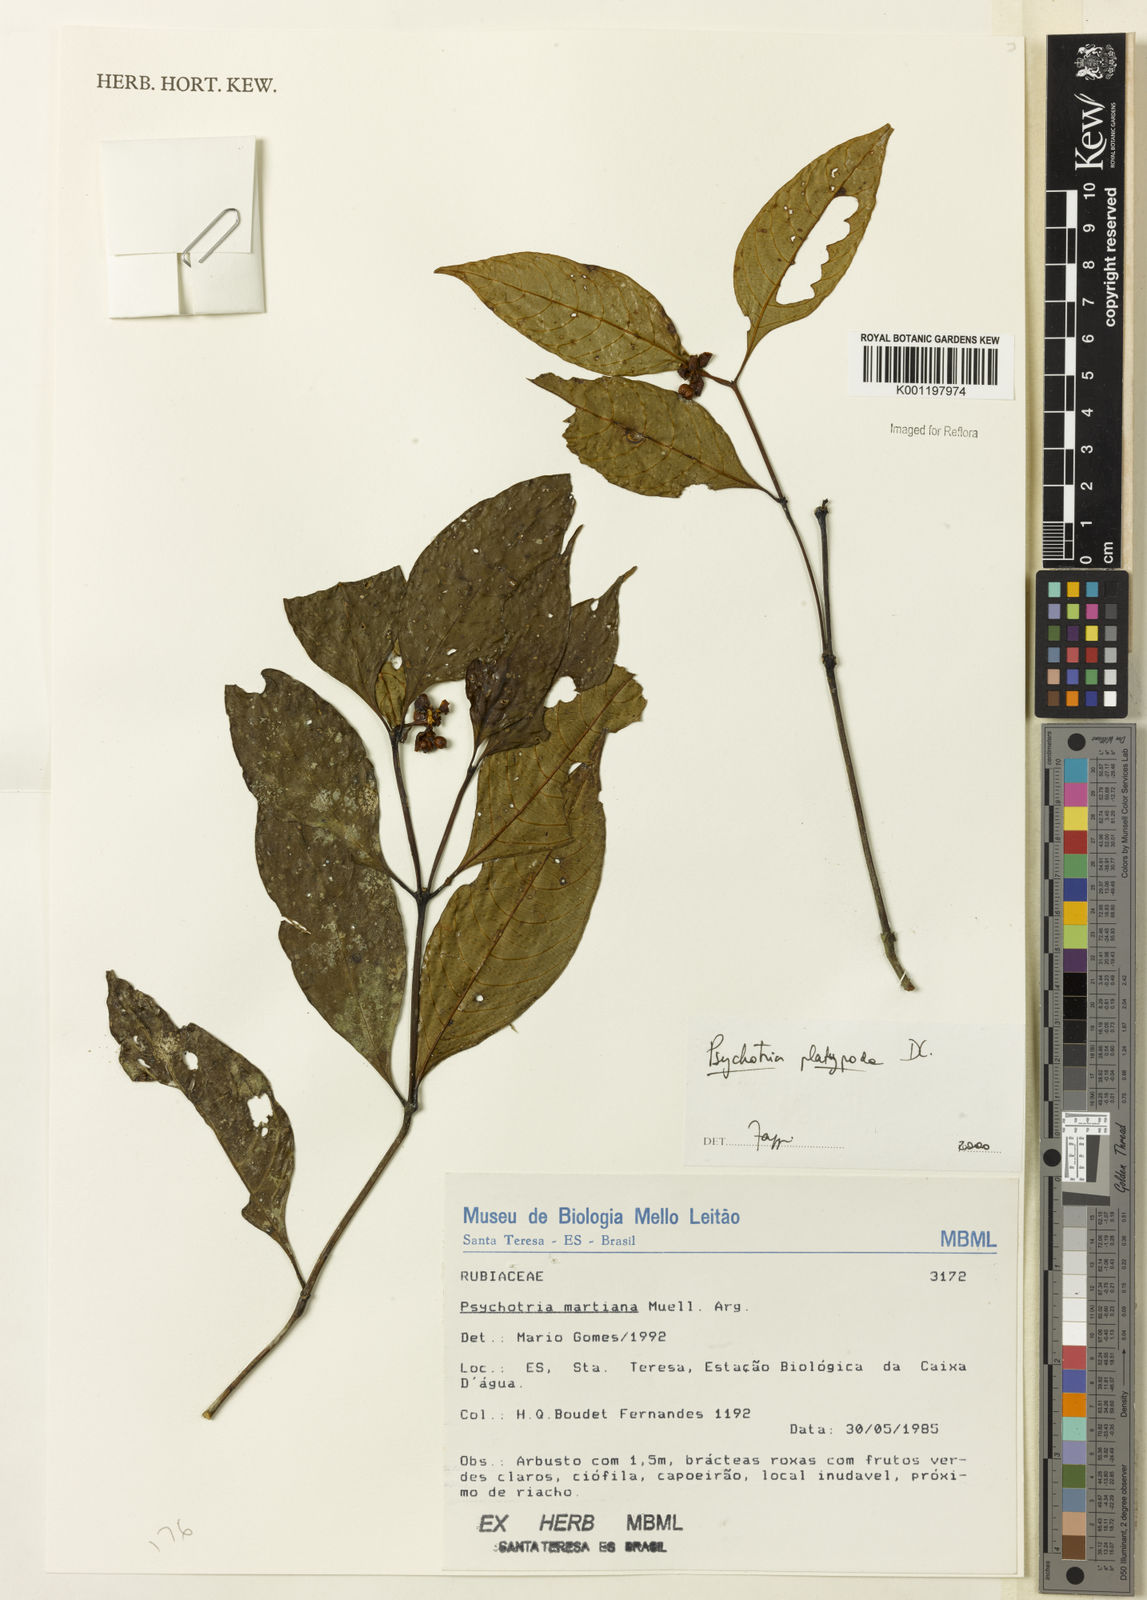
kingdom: Plantae
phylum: Tracheophyta
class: Magnoliopsida
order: Gentianales
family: Rubiaceae
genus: Palicourea
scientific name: Palicourea dichotoma
